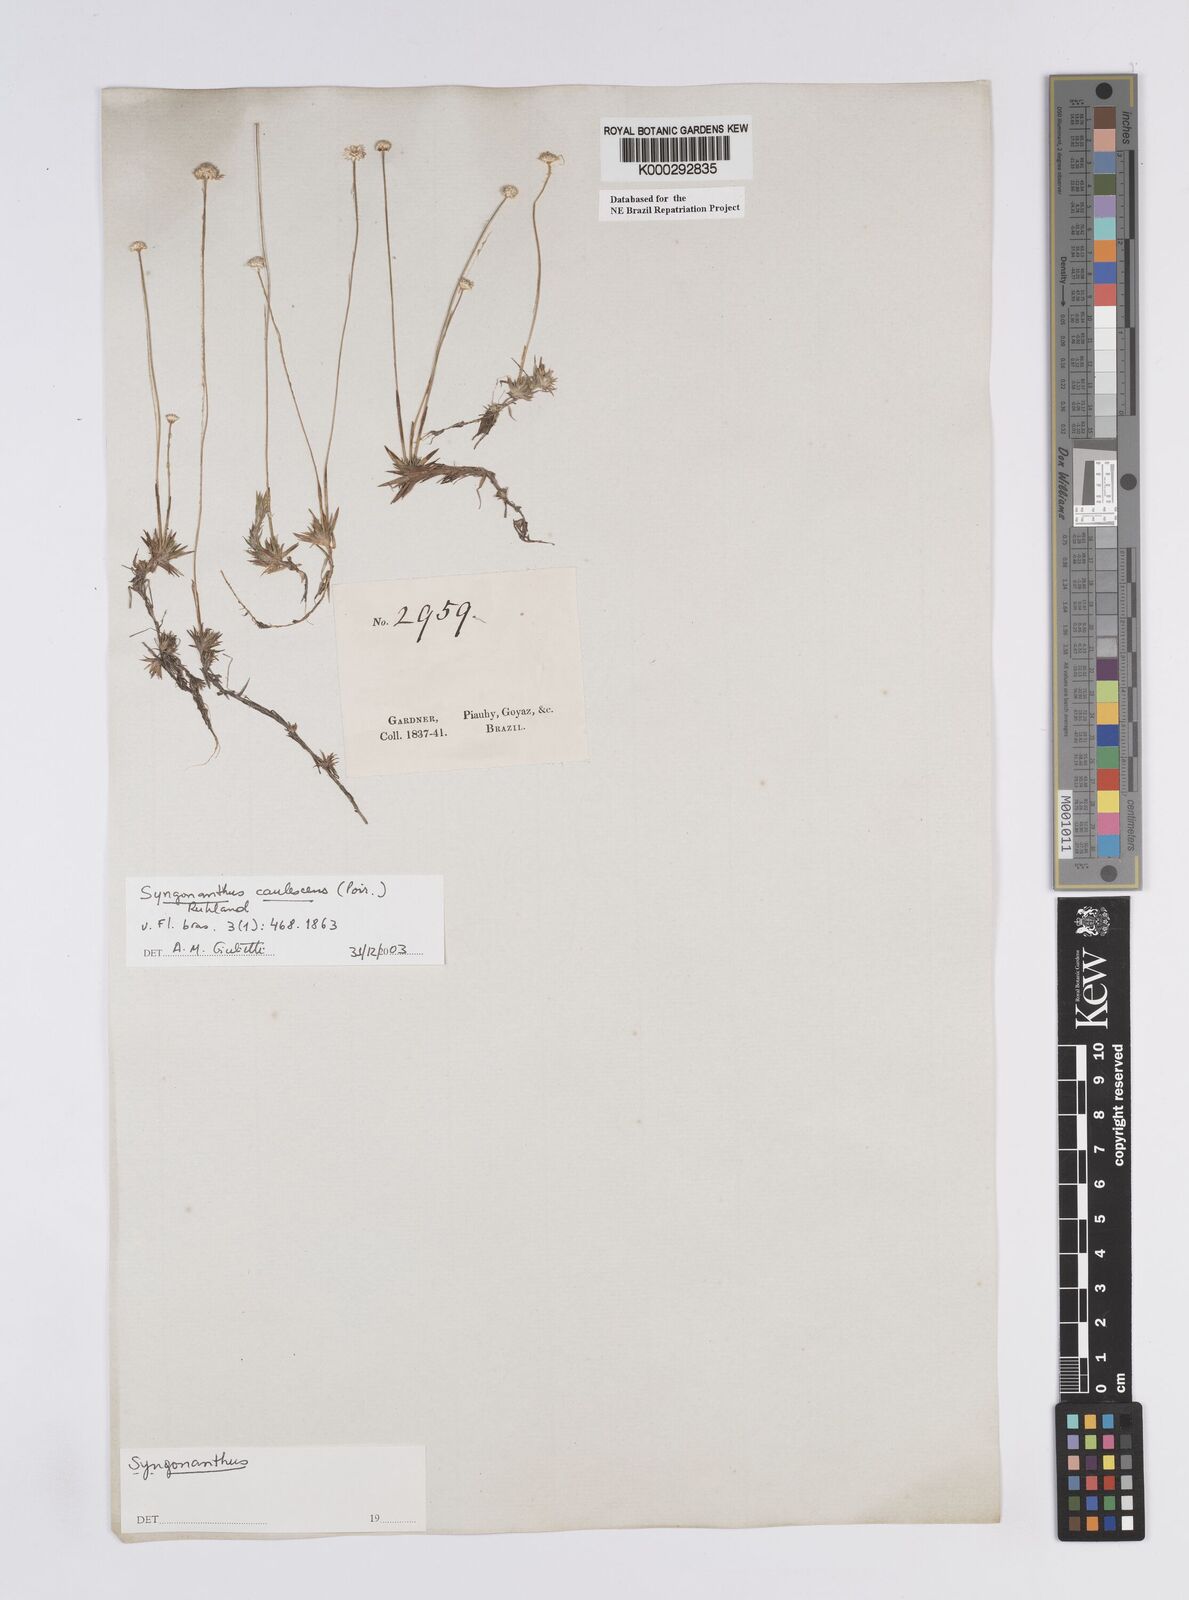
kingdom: Plantae
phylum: Tracheophyta
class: Liliopsida
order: Poales
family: Eriocaulaceae
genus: Syngonanthus
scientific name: Syngonanthus caulescens
